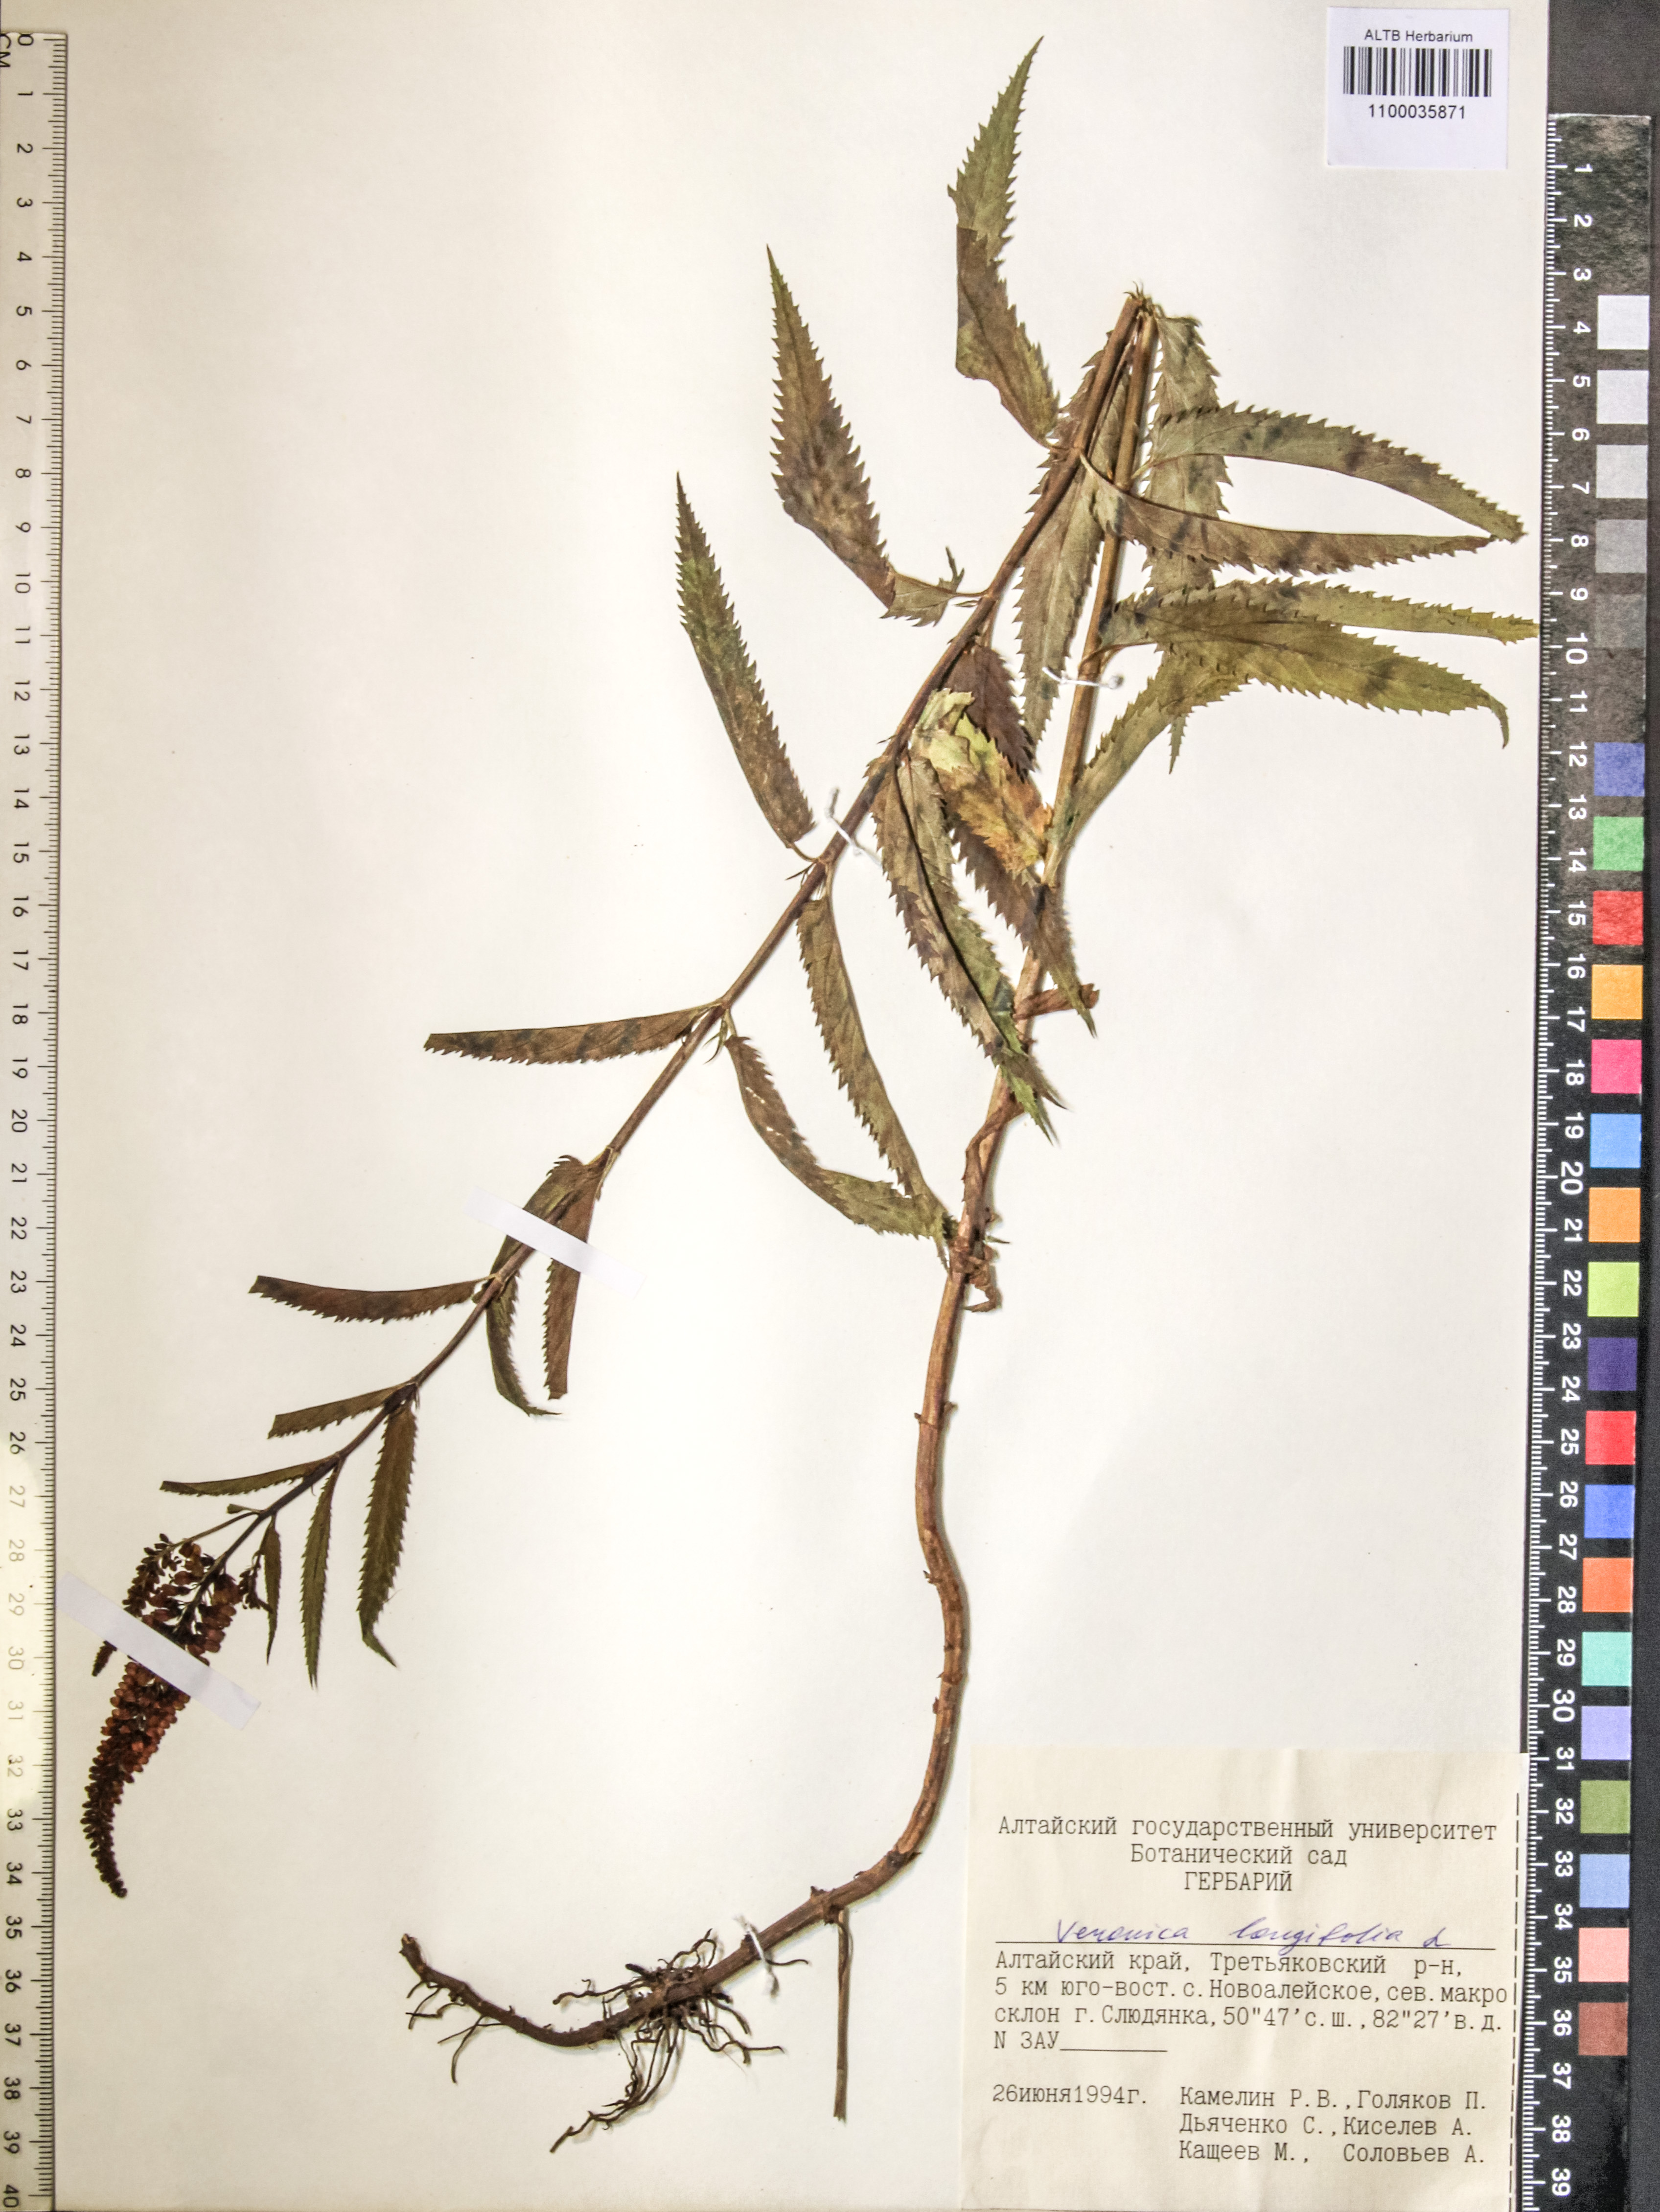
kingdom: Plantae
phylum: Tracheophyta
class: Magnoliopsida
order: Lamiales
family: Plantaginaceae
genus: Veronica
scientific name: Veronica longifolia
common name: Garden speedwell
